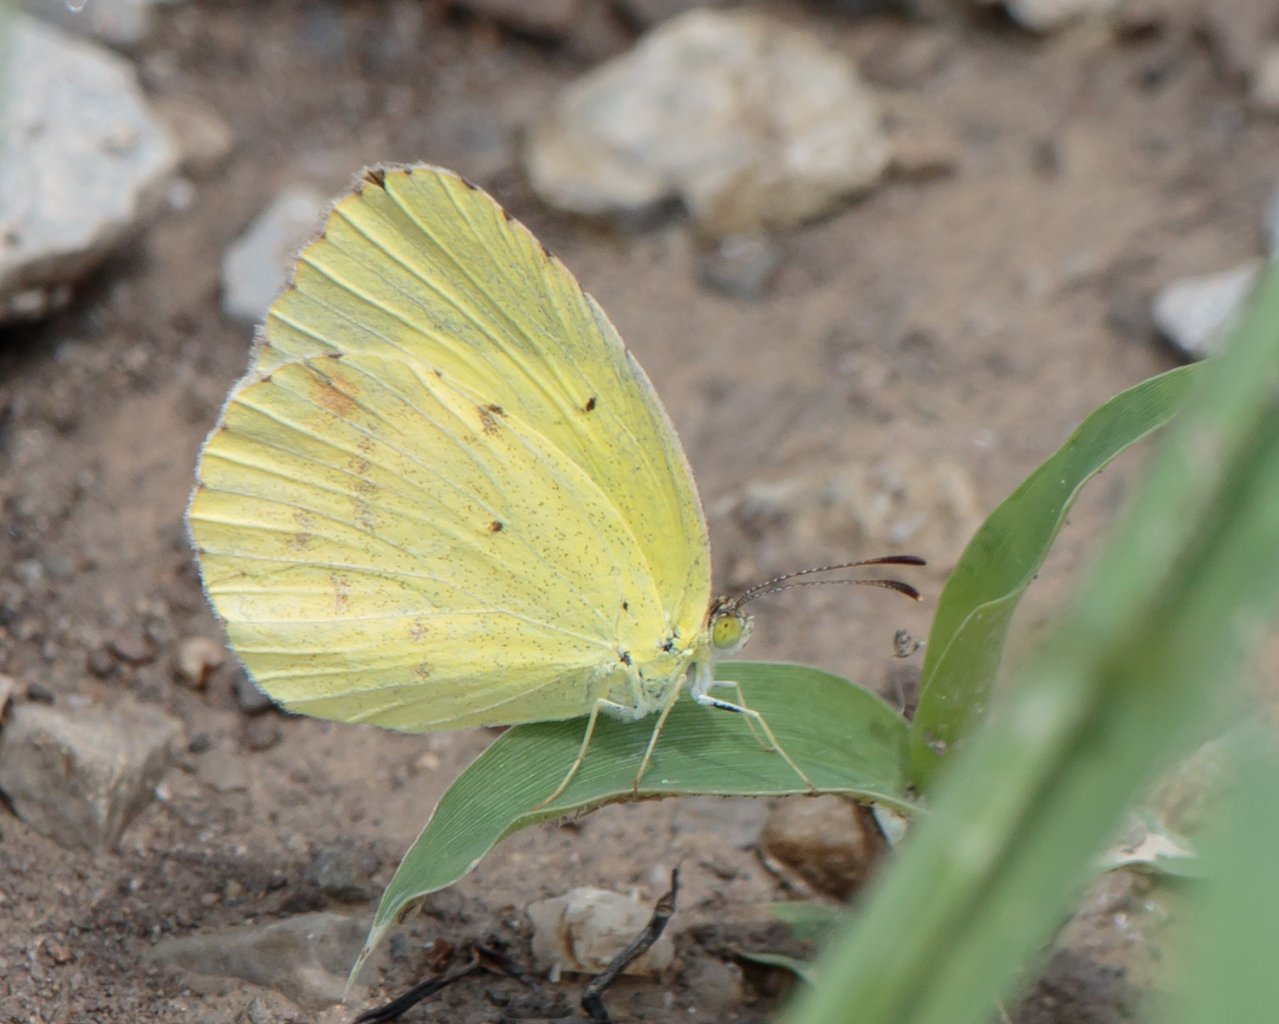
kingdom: Animalia
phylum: Arthropoda
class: Insecta
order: Lepidoptera
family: Pieridae
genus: Pyrisitia
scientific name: Pyrisitia lisa
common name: Little Yellow
